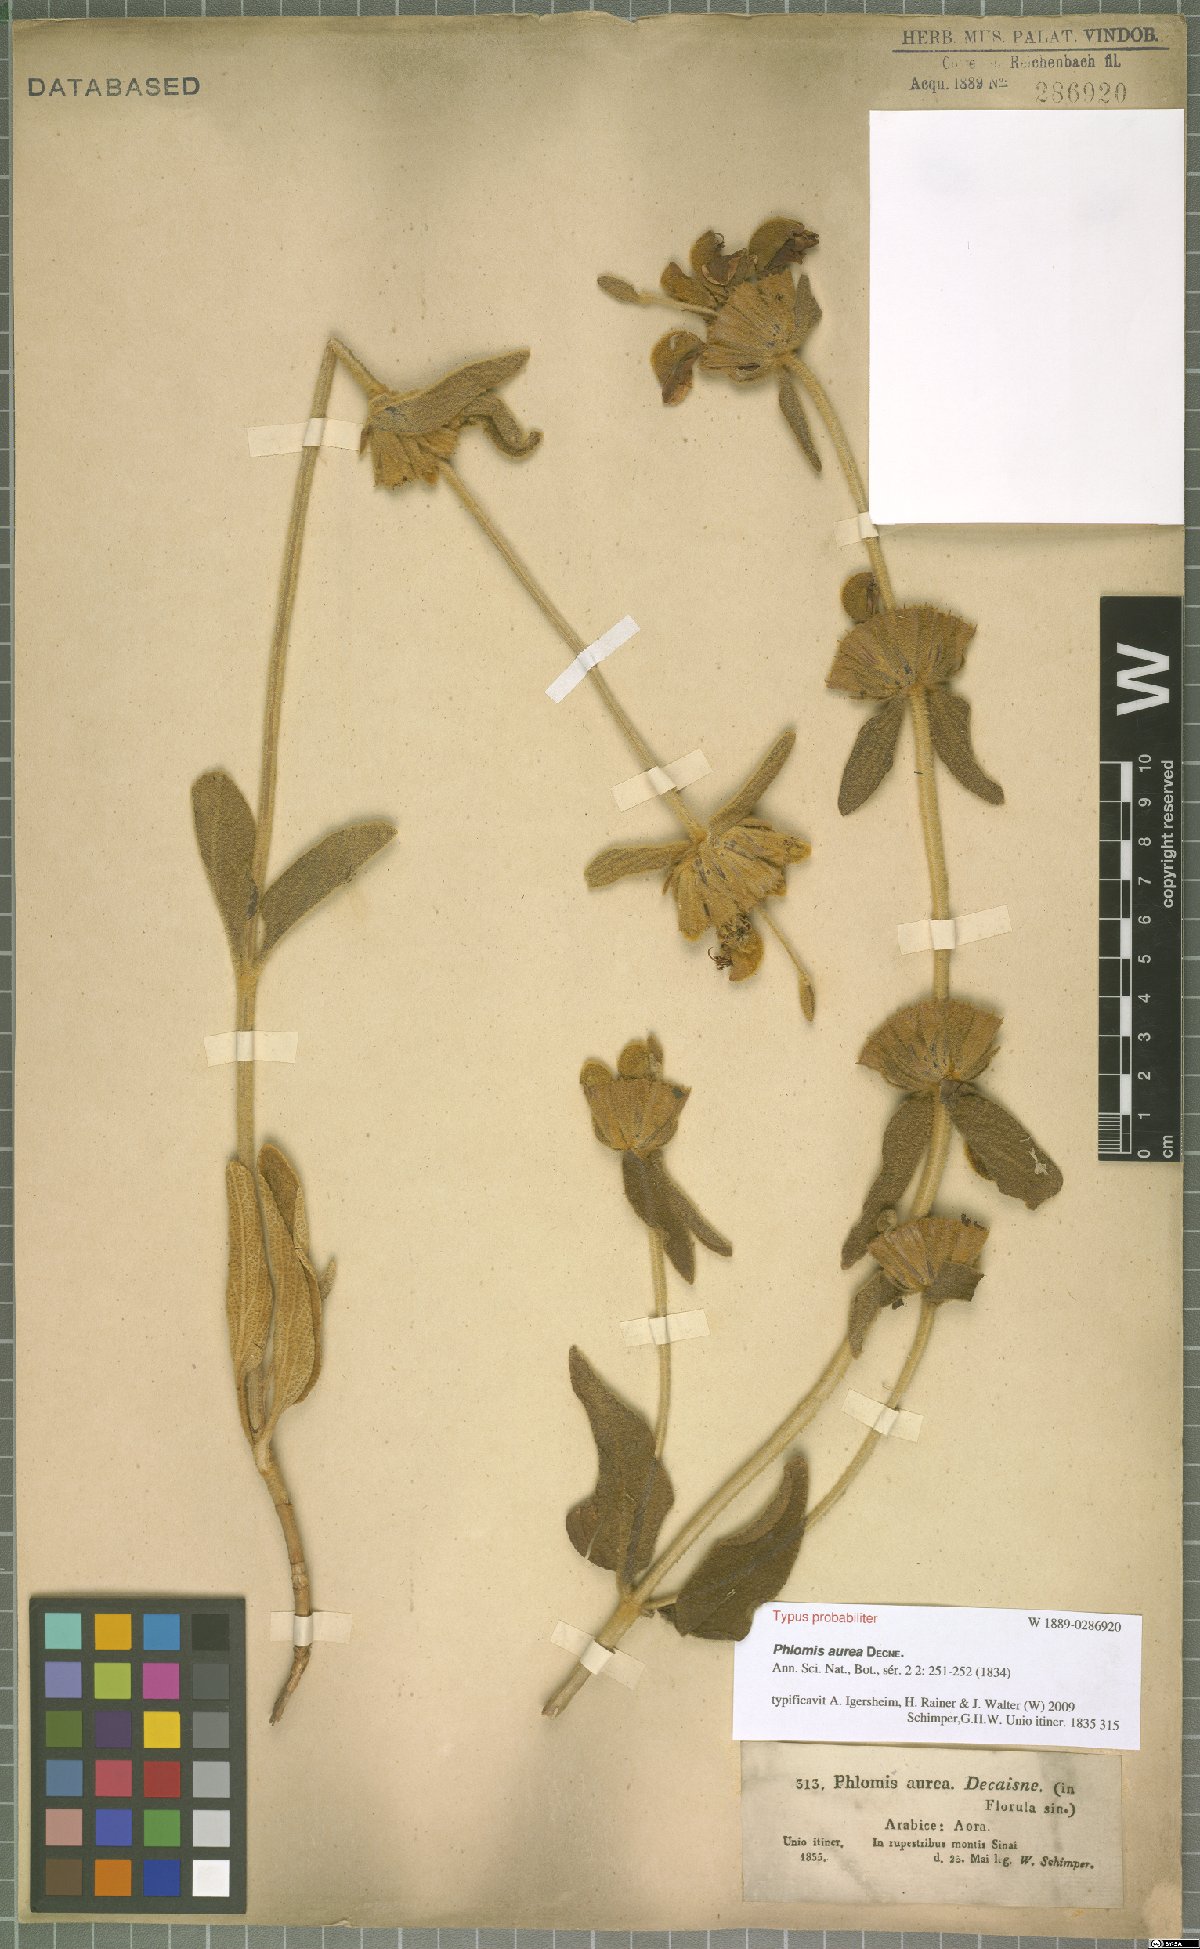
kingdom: Plantae
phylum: Tracheophyta
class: Magnoliopsida
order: Lamiales
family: Lamiaceae
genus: Phlomis
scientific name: Phlomis aurea
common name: Sinai jerusalem sage
